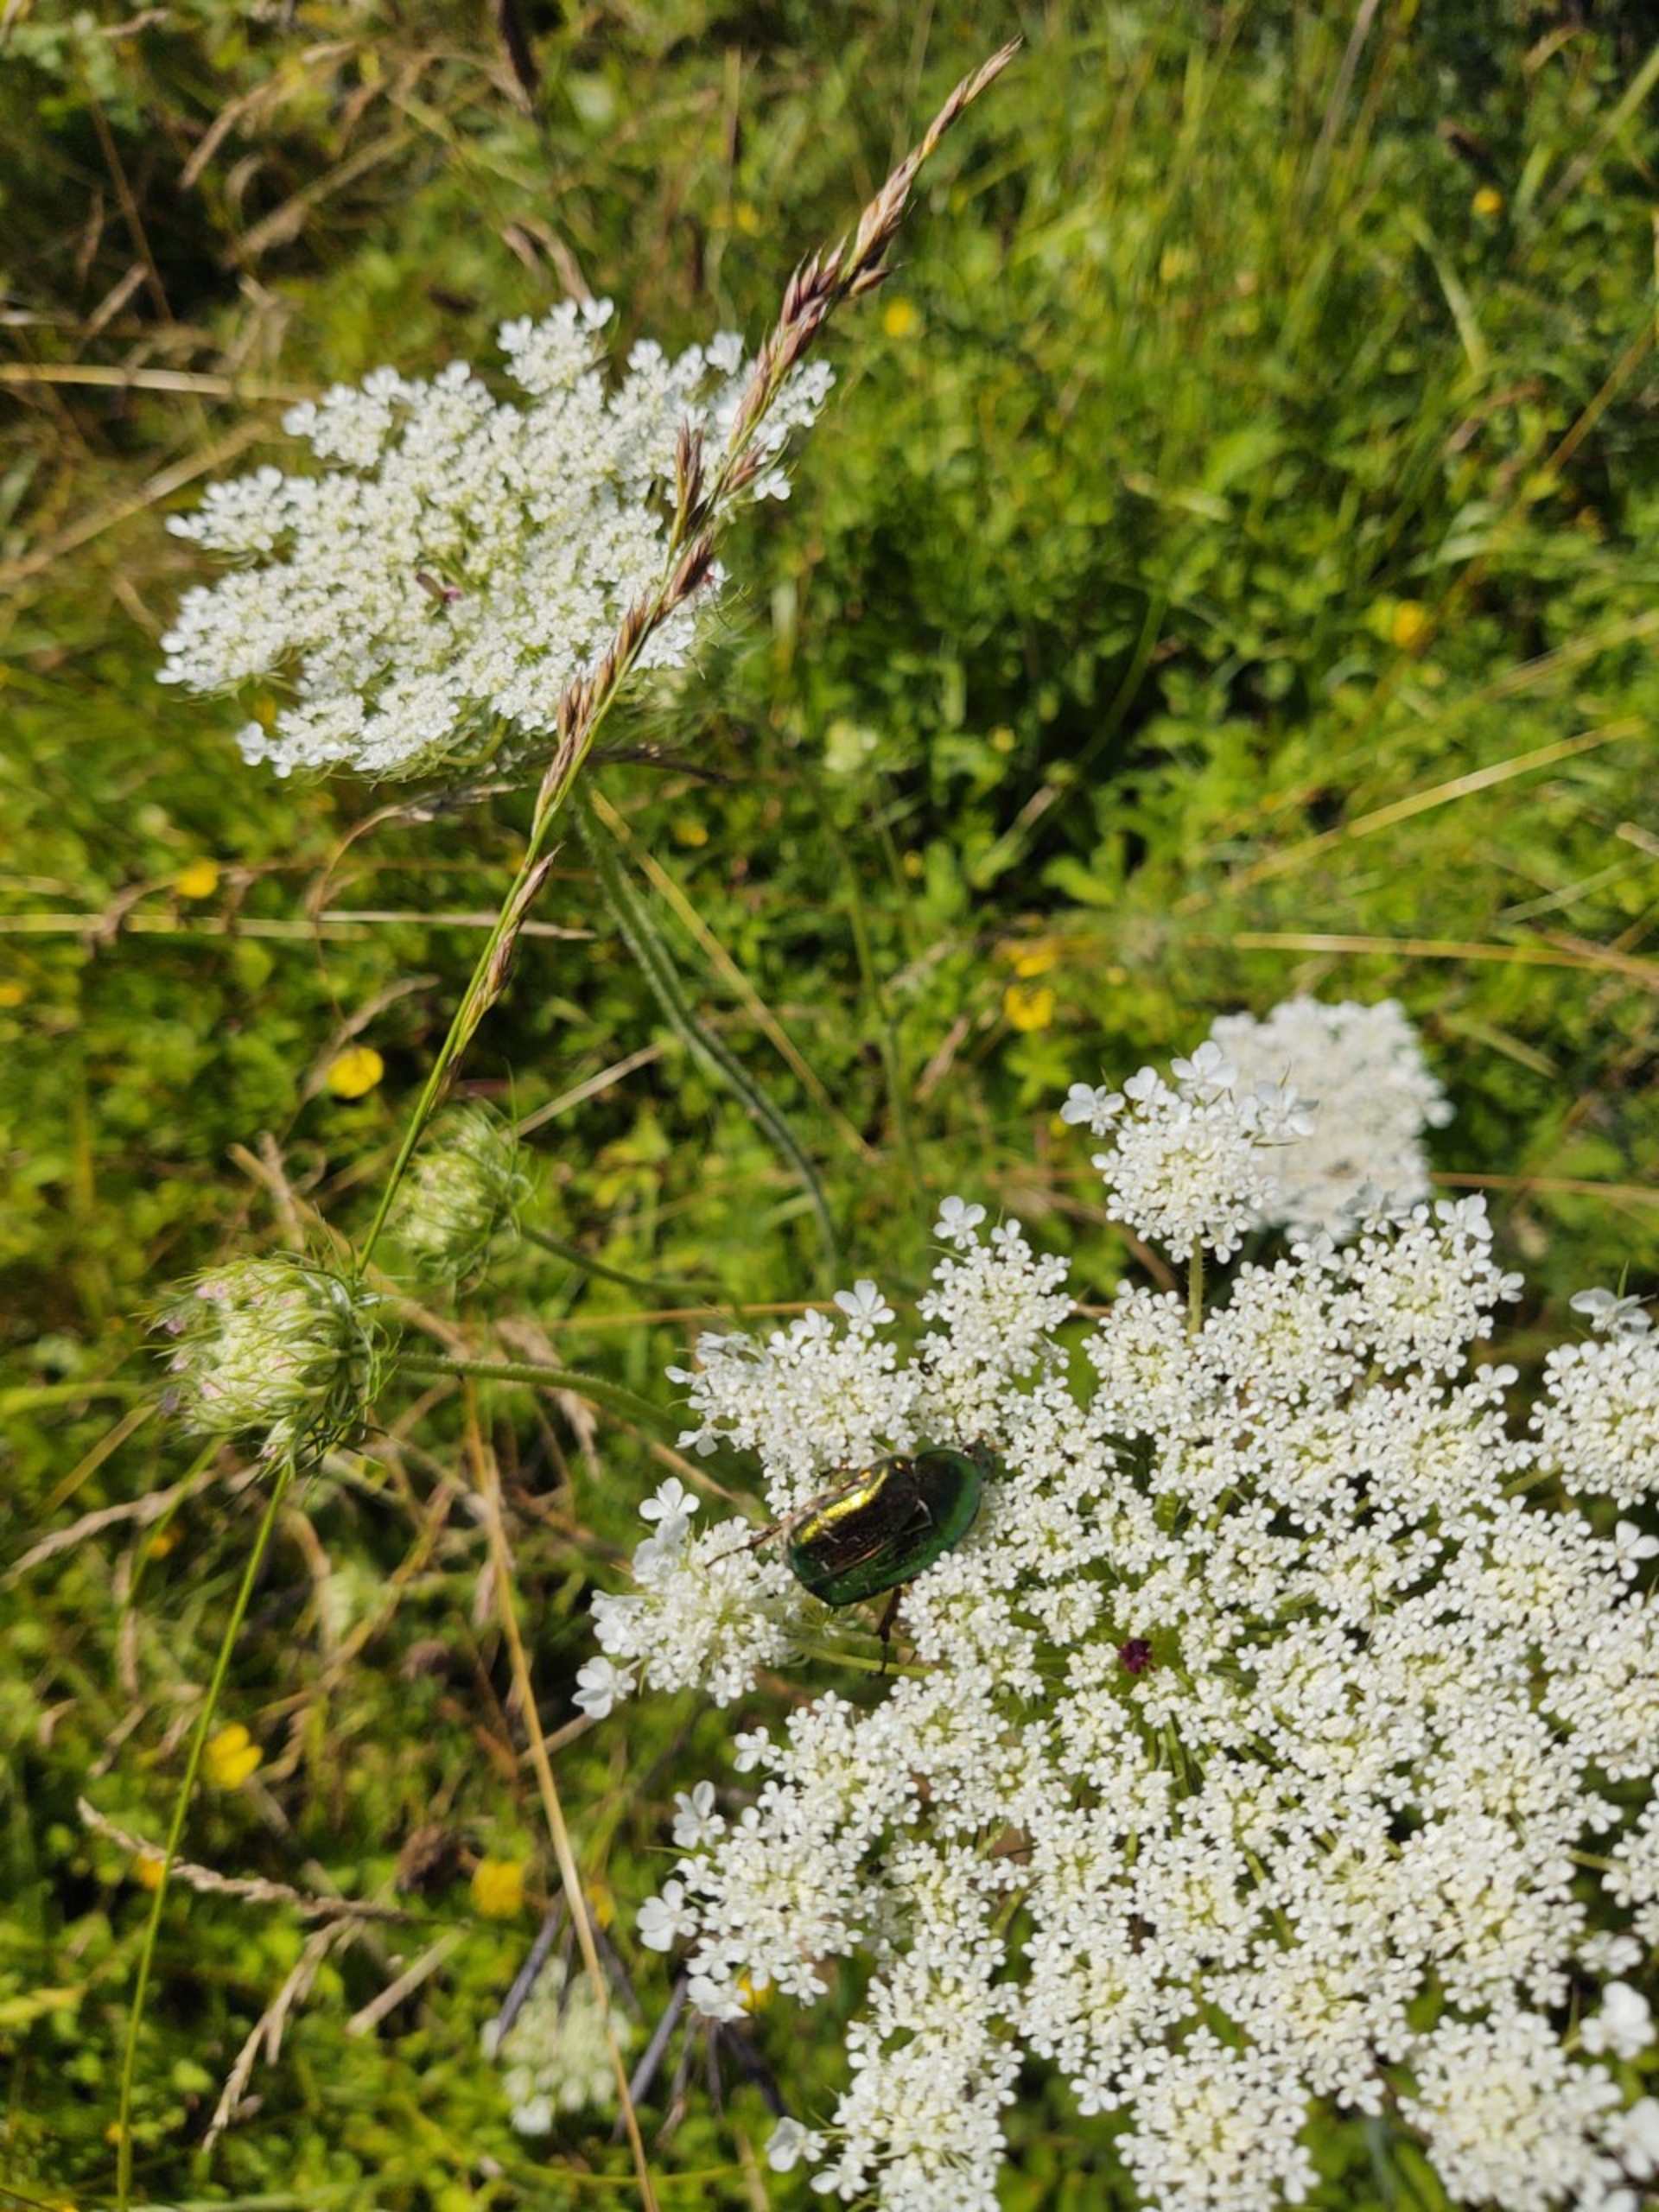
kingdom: Animalia
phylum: Arthropoda
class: Insecta
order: Coleoptera
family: Scarabaeidae
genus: Cetonia
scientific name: Cetonia aurata
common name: Grøn guldbasse
